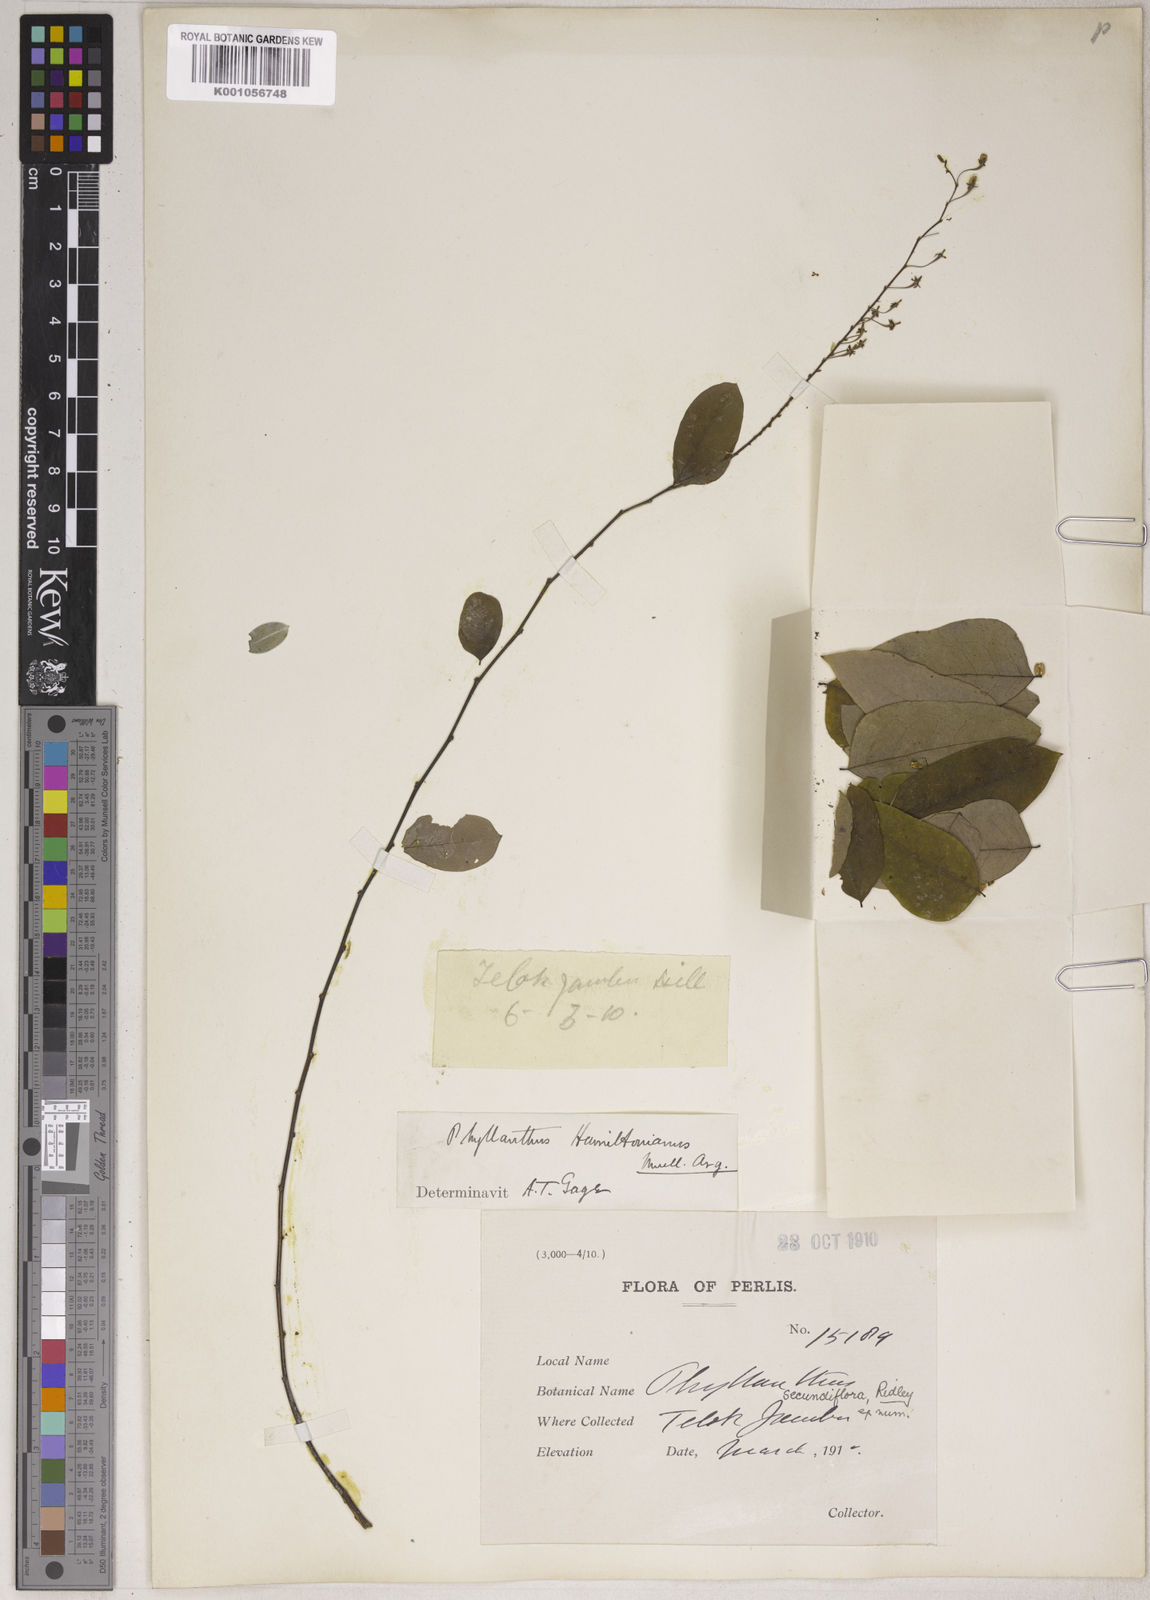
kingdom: Plantae
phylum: Tracheophyta
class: Magnoliopsida
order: Malpighiales
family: Phyllanthaceae
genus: Phyllanthus
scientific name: Phyllanthus
